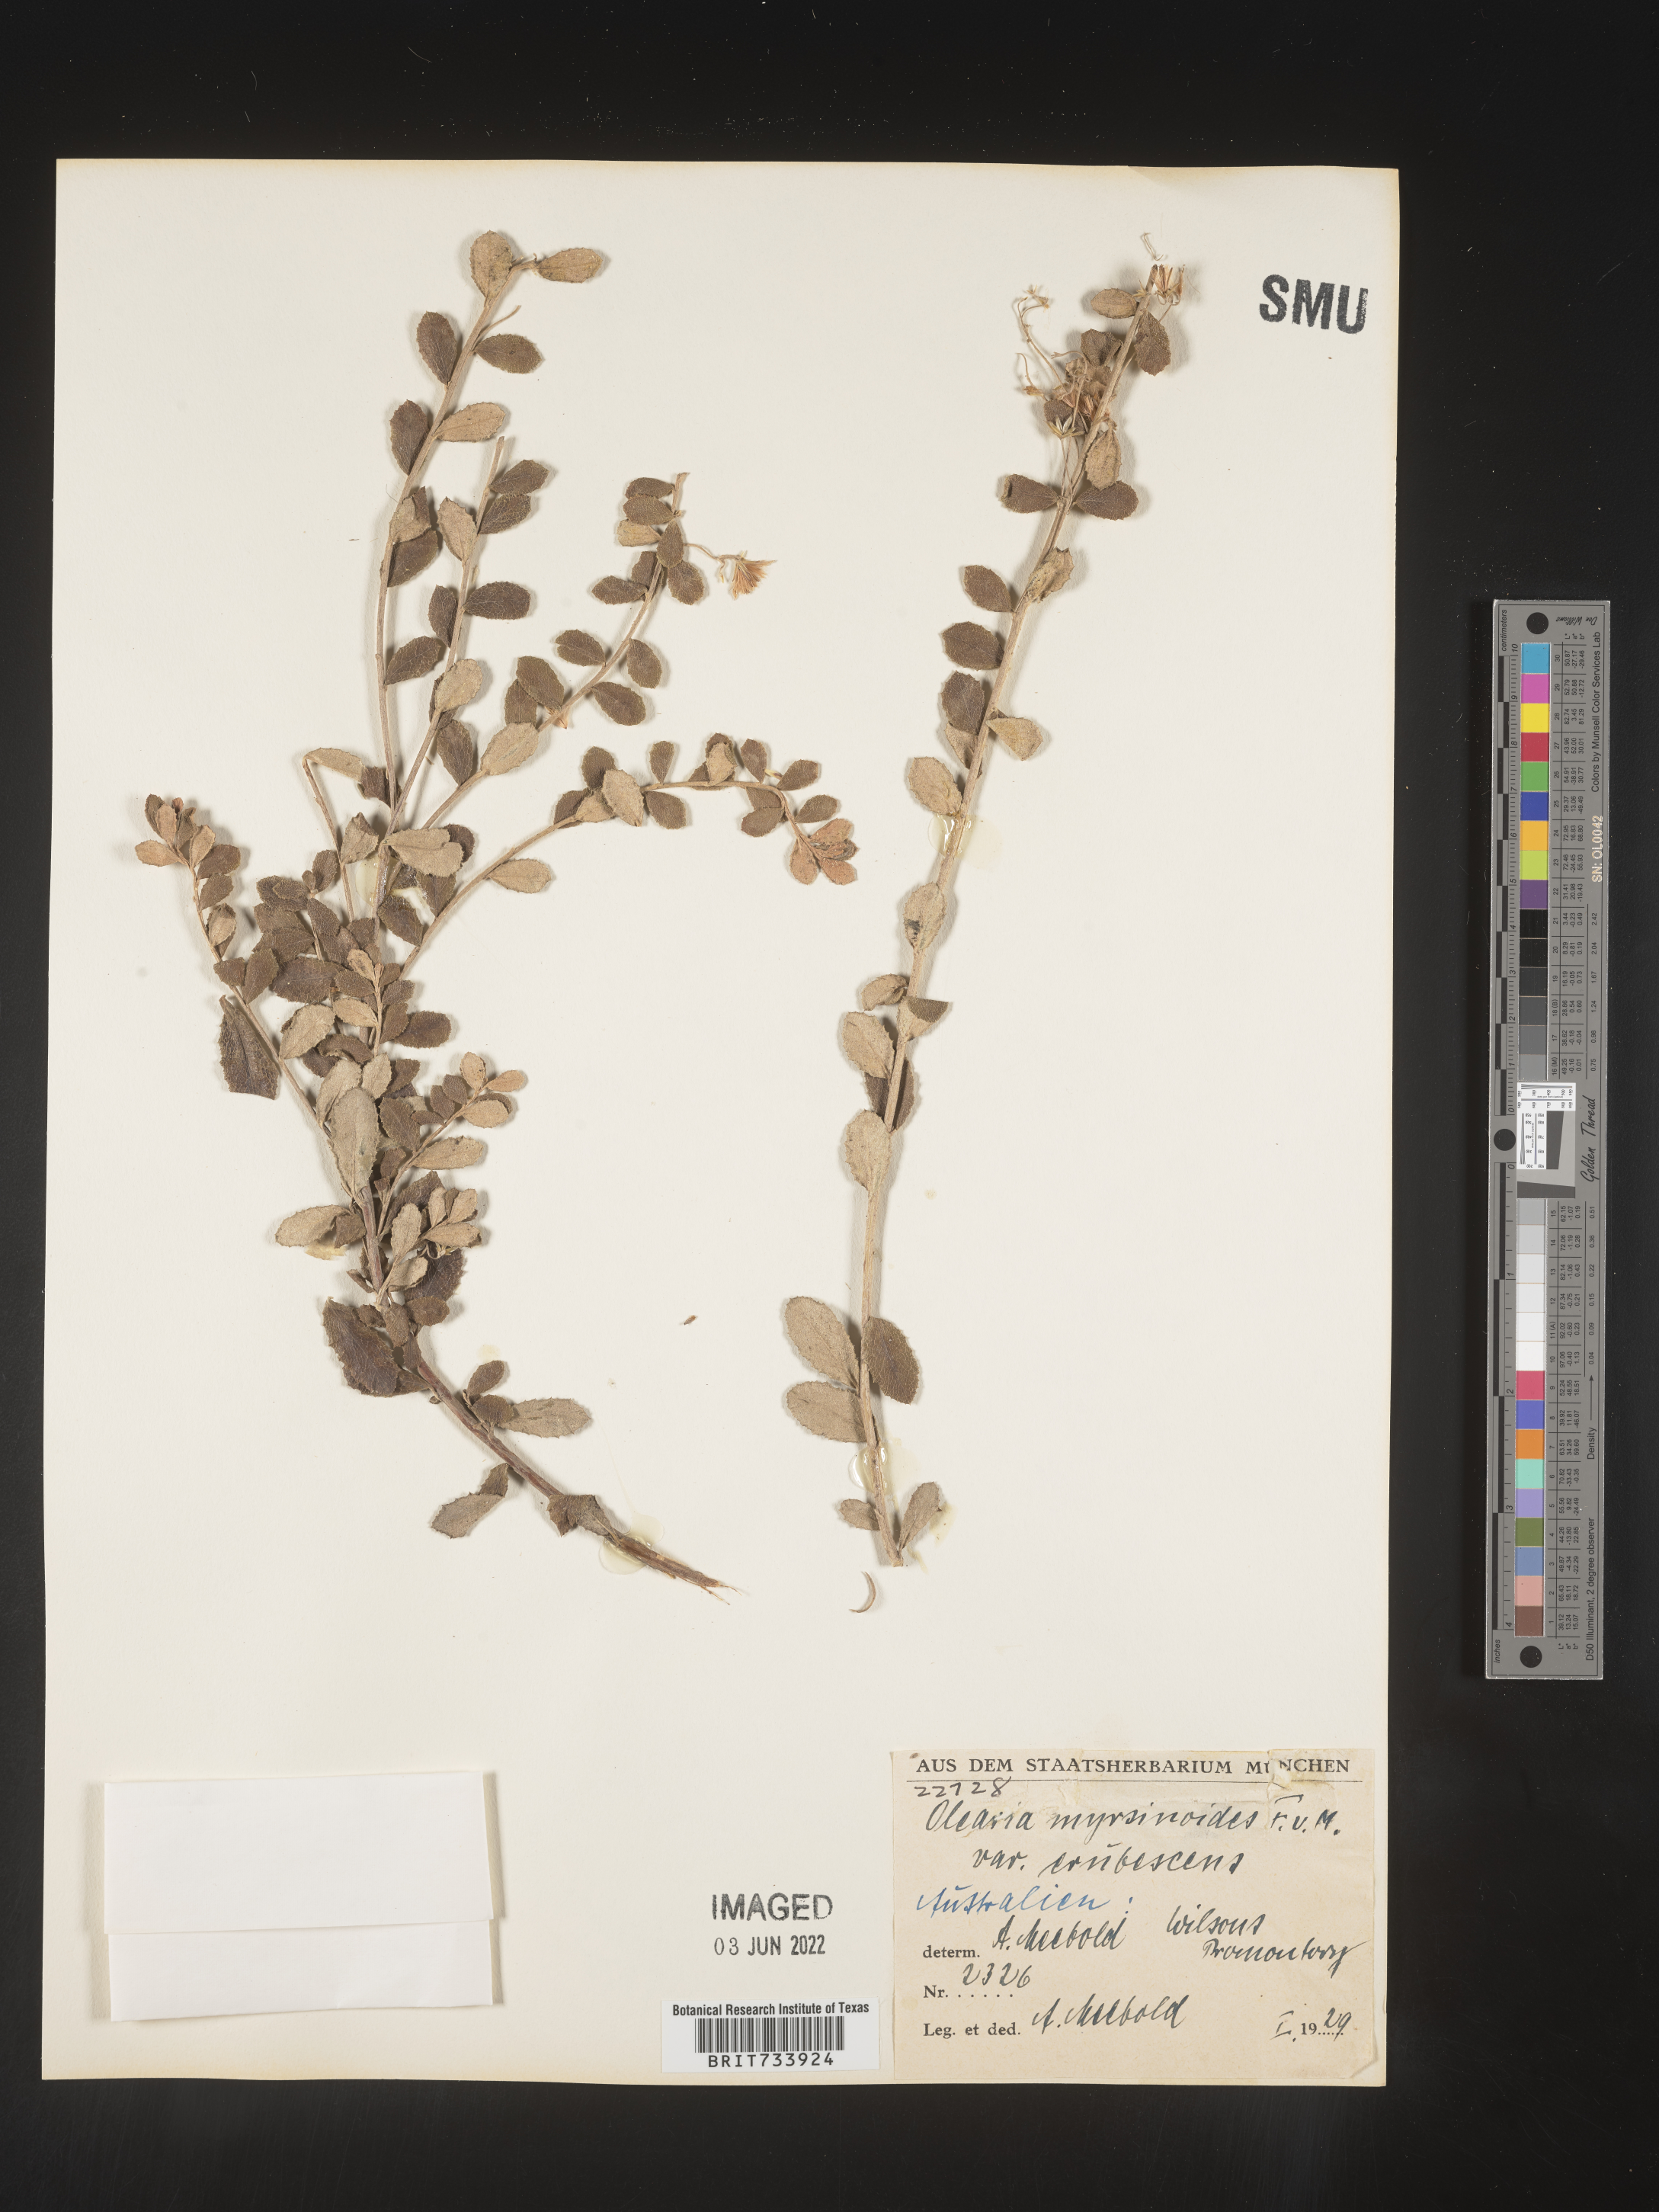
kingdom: Plantae
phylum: Tracheophyta
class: Magnoliopsida
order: Asterales
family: Asteraceae
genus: Olearia
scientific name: Olearia
